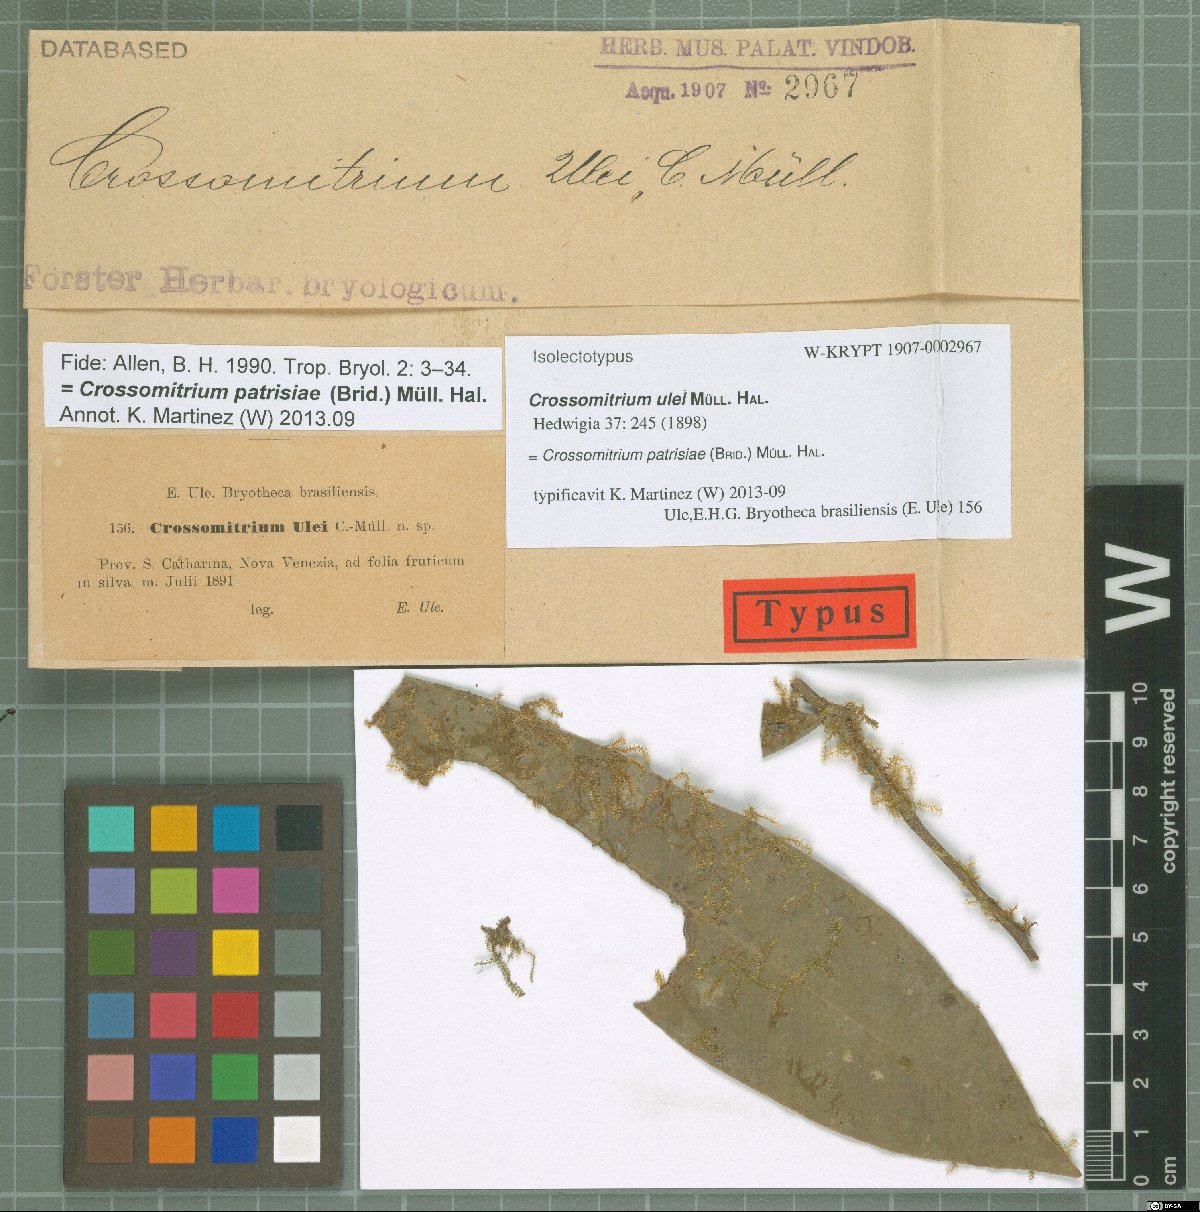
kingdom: Plantae
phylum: Bryophyta
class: Bryopsida
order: Hookeriales
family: Hookeriaceae
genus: Crossomitrium
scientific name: Crossomitrium patrisiae
